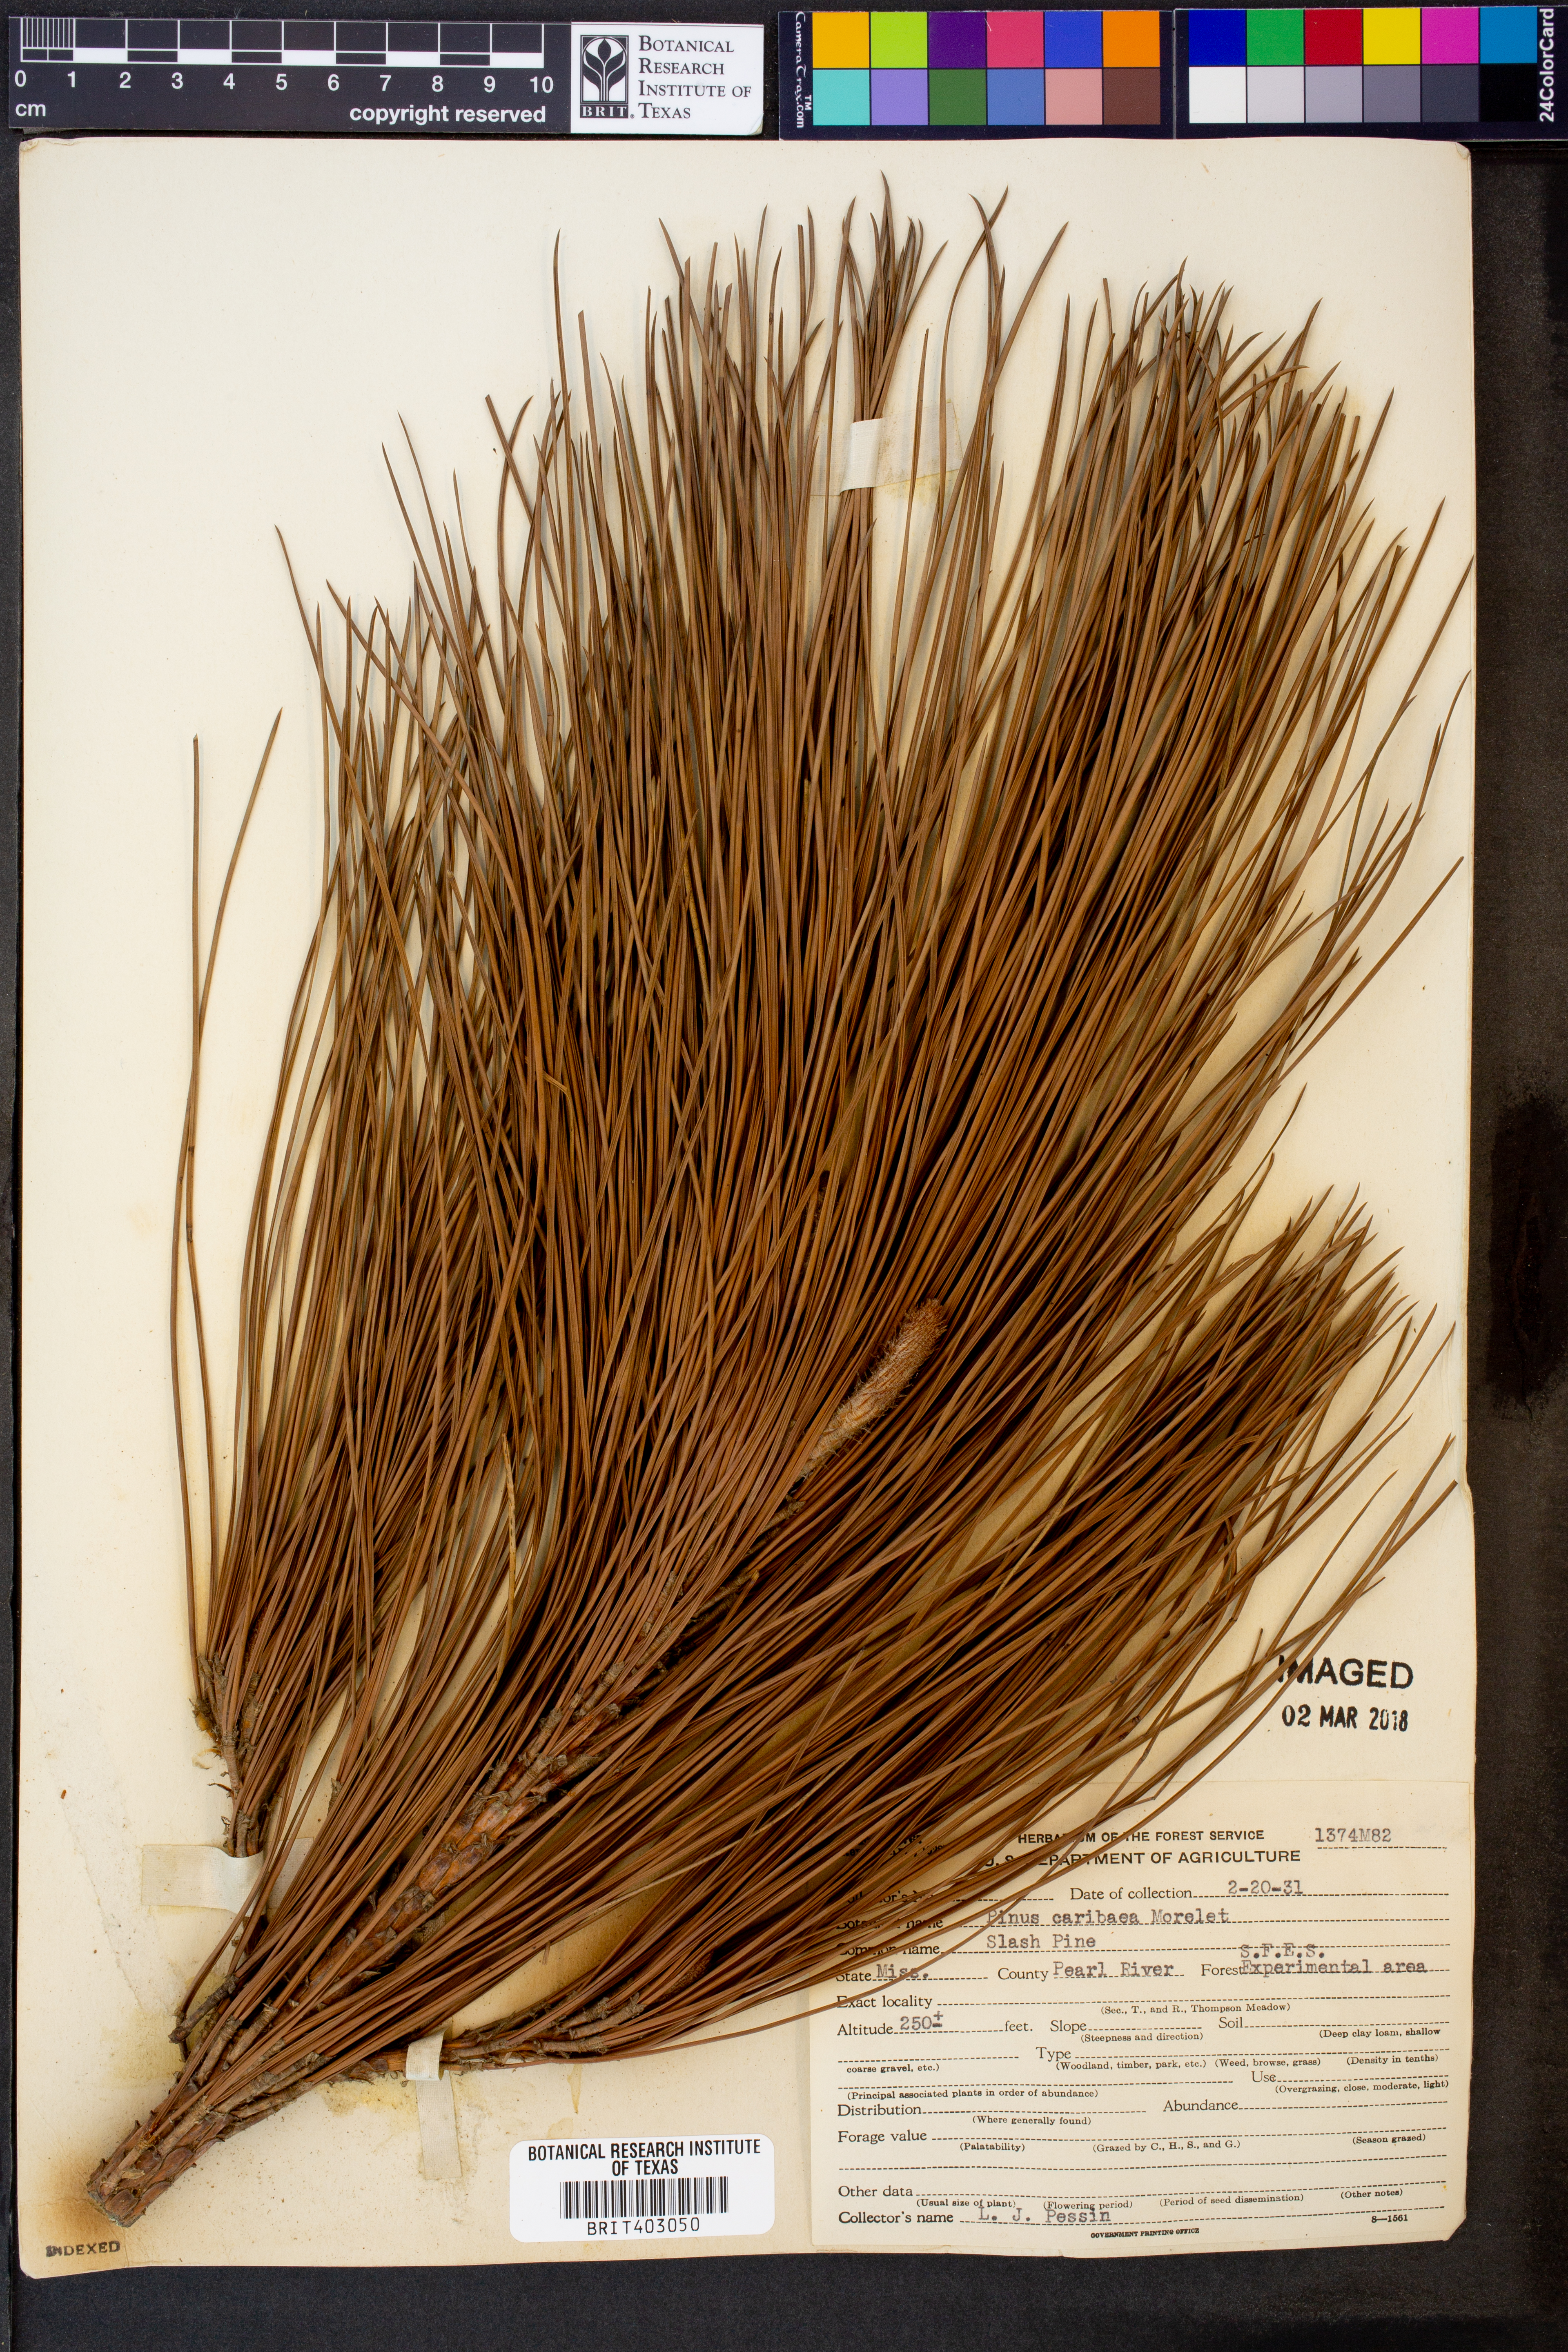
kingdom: Plantae
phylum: Tracheophyta
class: Pinopsida
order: Pinales
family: Pinaceae
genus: Pinus
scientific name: Pinus caribaea
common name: Caribbean pine
